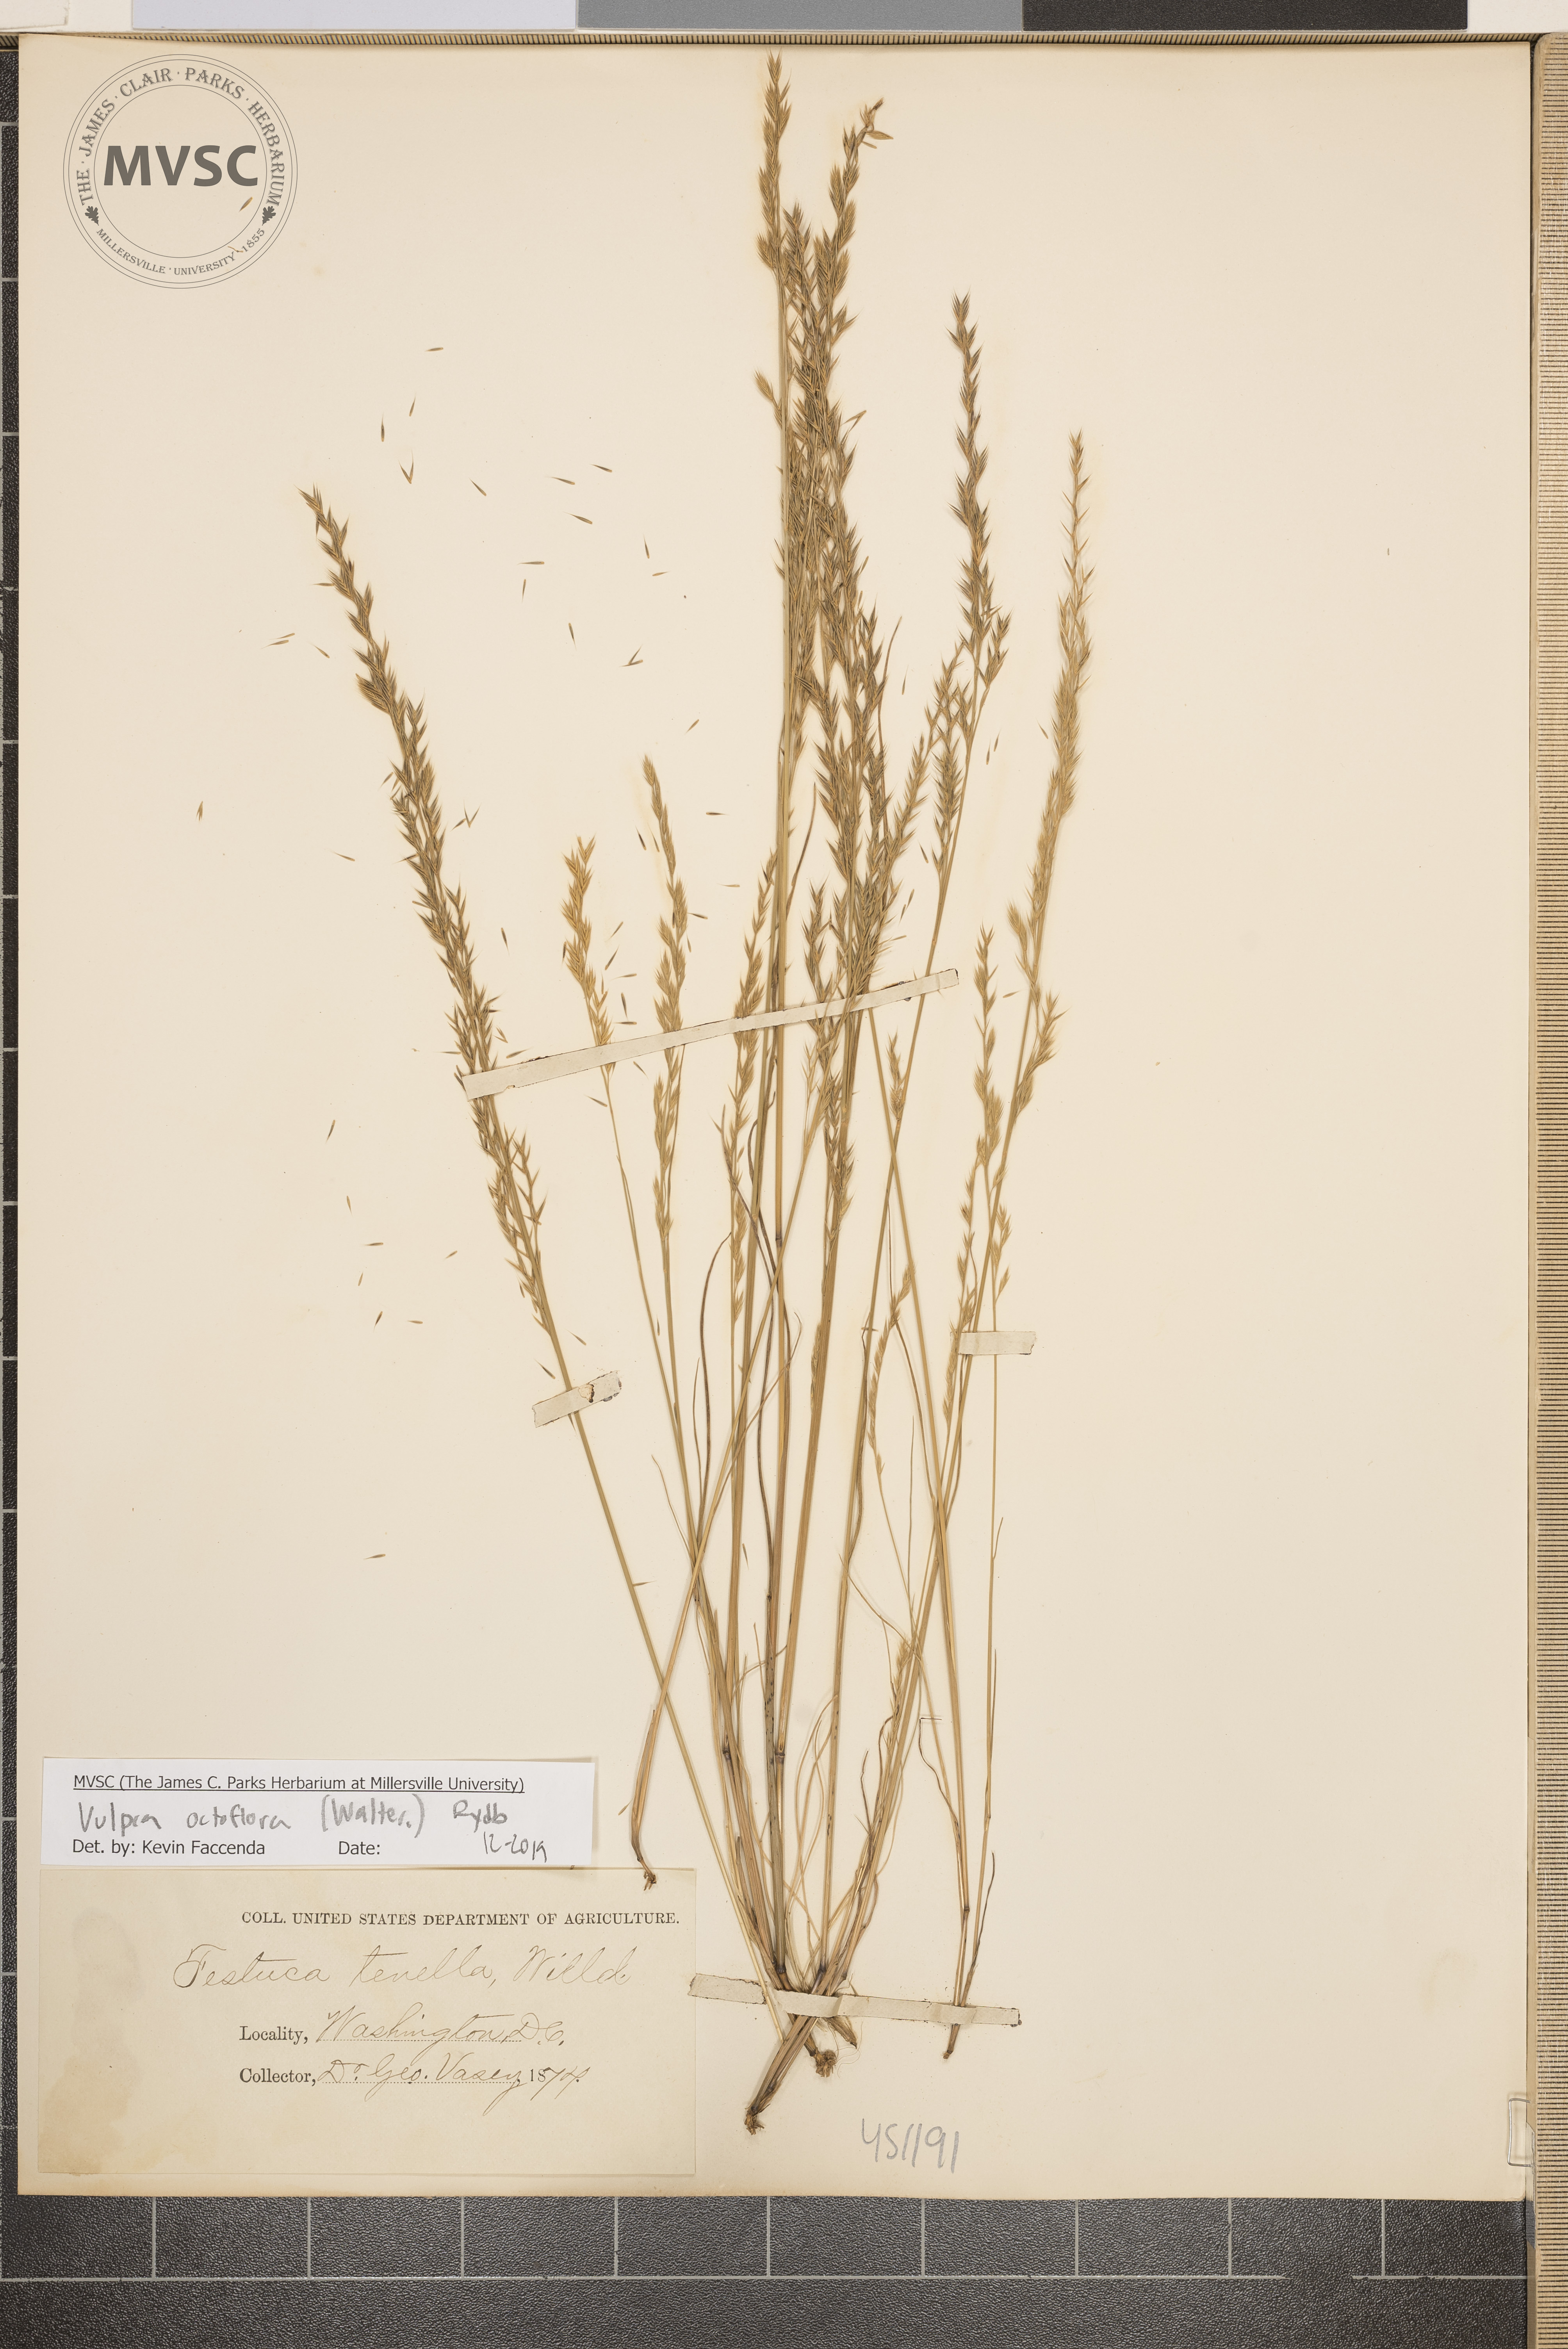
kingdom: Plantae
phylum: Tracheophyta
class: Liliopsida
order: Poales
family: Poaceae
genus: Festuca
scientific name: Festuca octoflora
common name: Sixweeks grass
